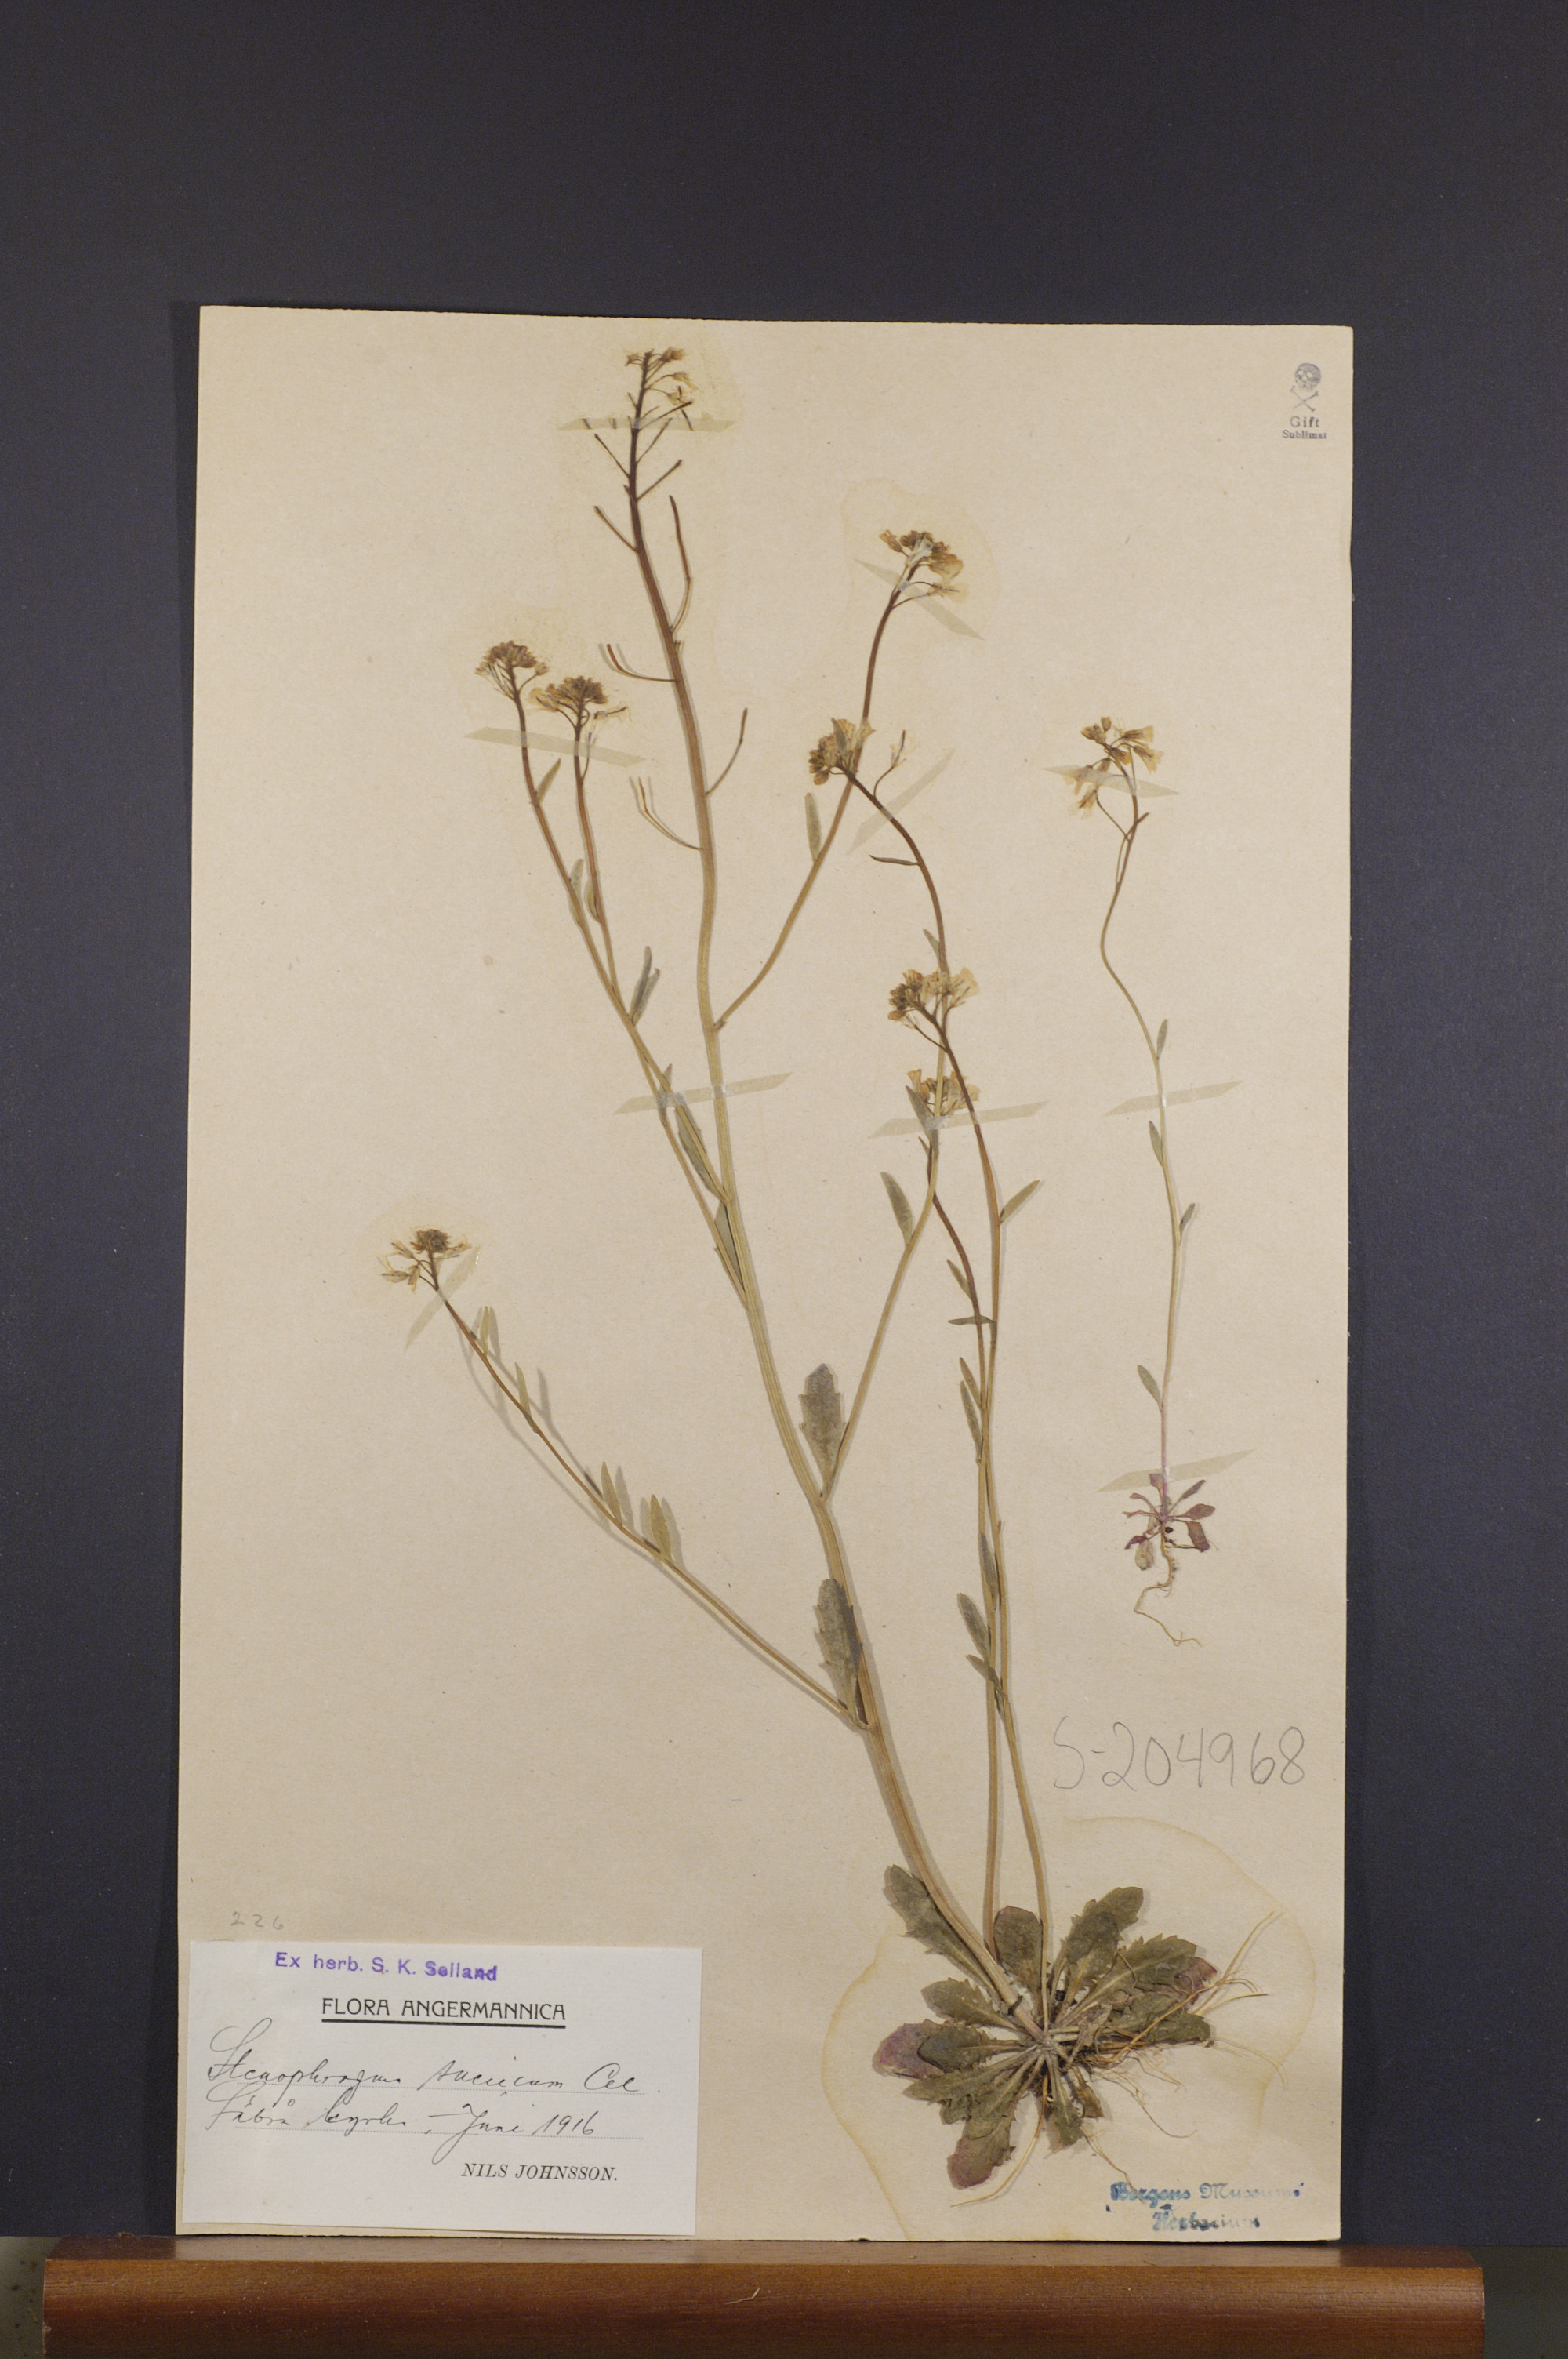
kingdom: Plantae
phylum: Tracheophyta
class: Magnoliopsida
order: Brassicales
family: Brassicaceae
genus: Arabidopsis
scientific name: Arabidopsis suecica
